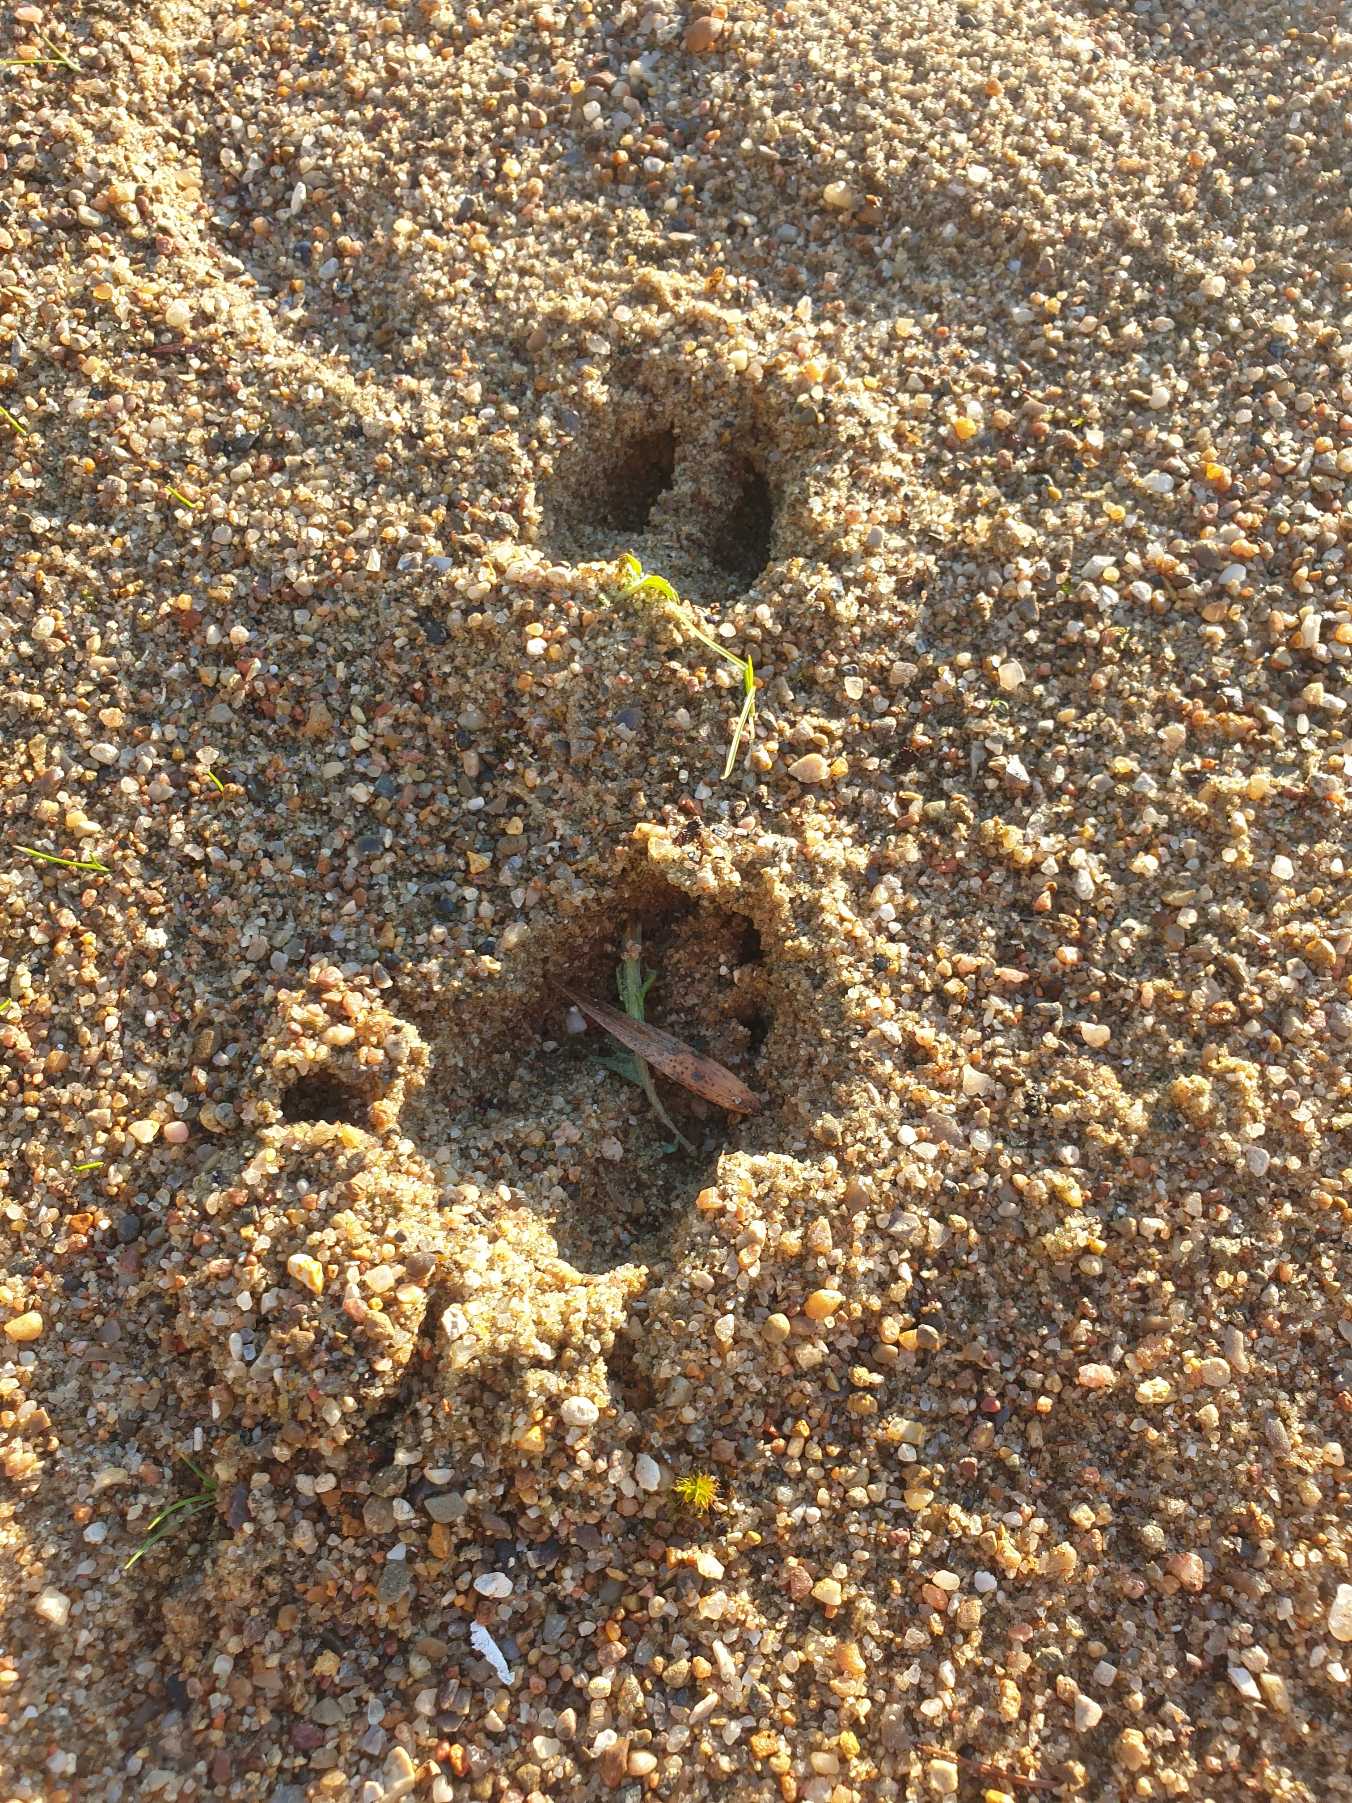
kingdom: Animalia
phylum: Chordata
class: Mammalia
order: Artiodactyla
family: Cervidae
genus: Capreolus
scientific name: Capreolus capreolus
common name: Rådyr
